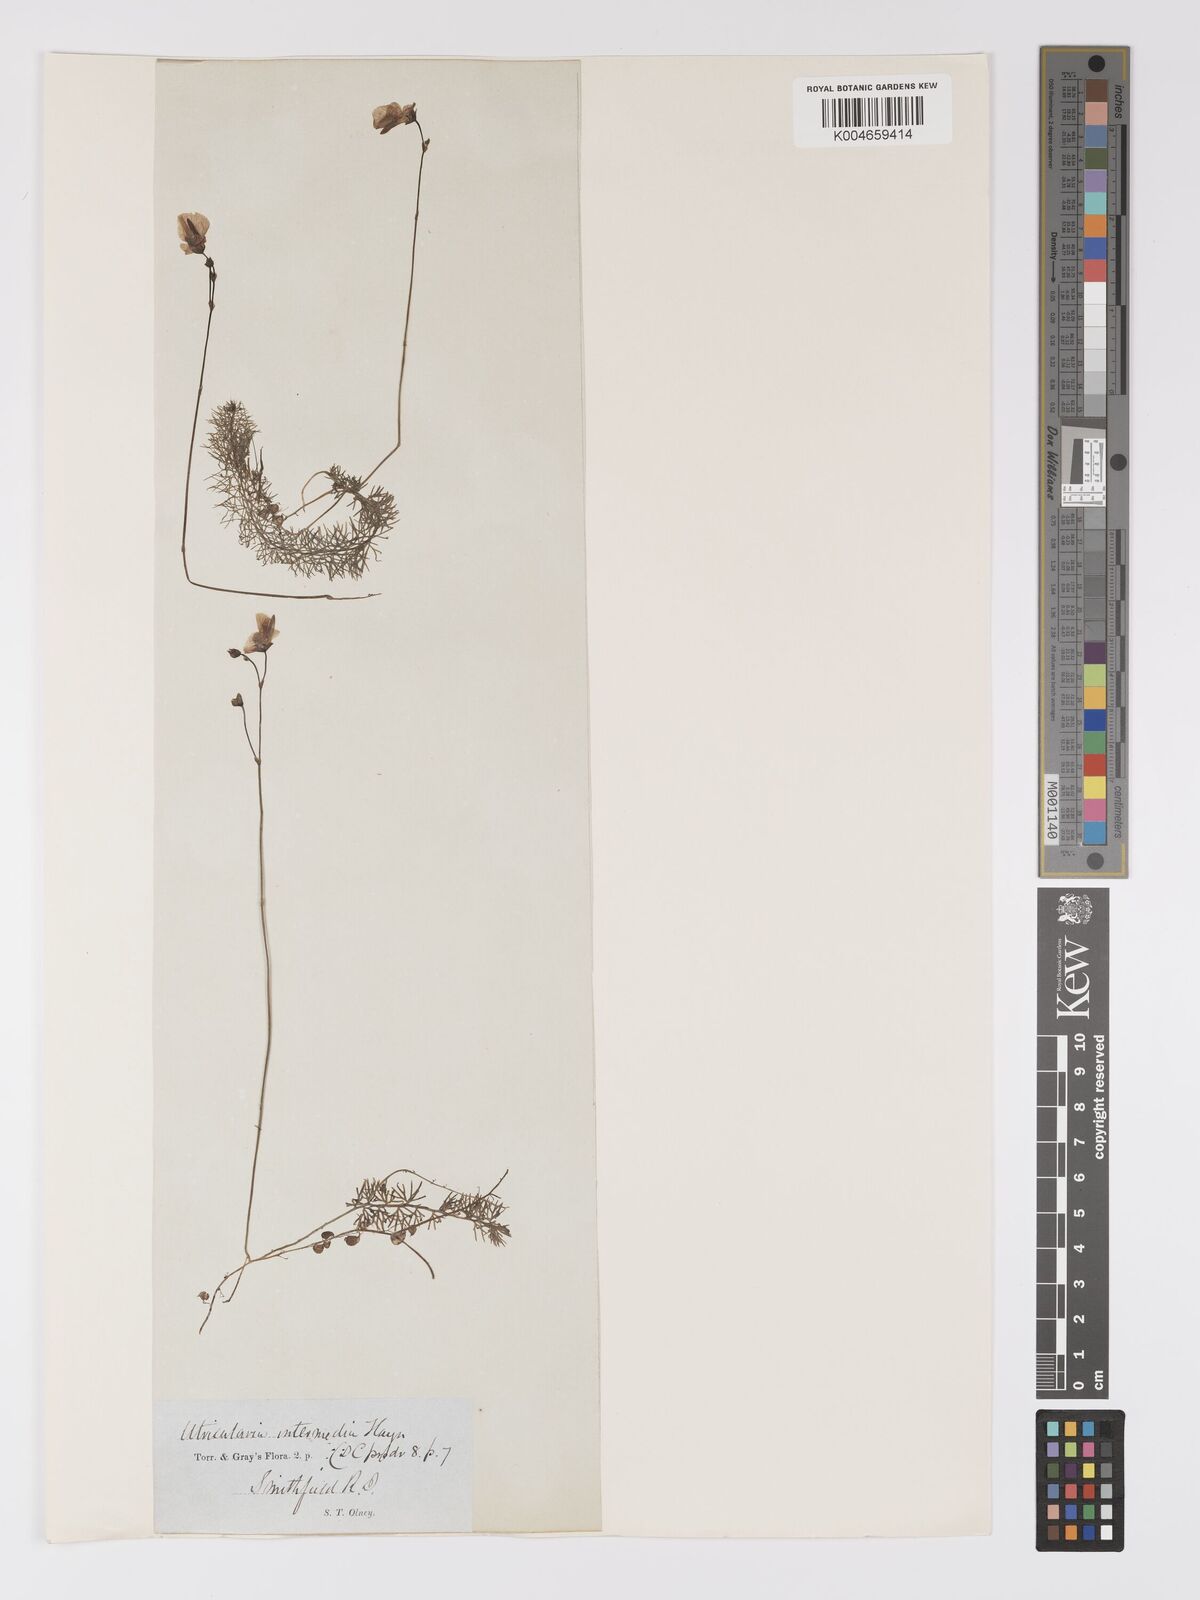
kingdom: Plantae
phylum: Tracheophyta
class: Magnoliopsida
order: Lamiales
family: Lentibulariaceae
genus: Utricularia
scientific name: Utricularia intermedia
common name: Intermediate bladderwort
